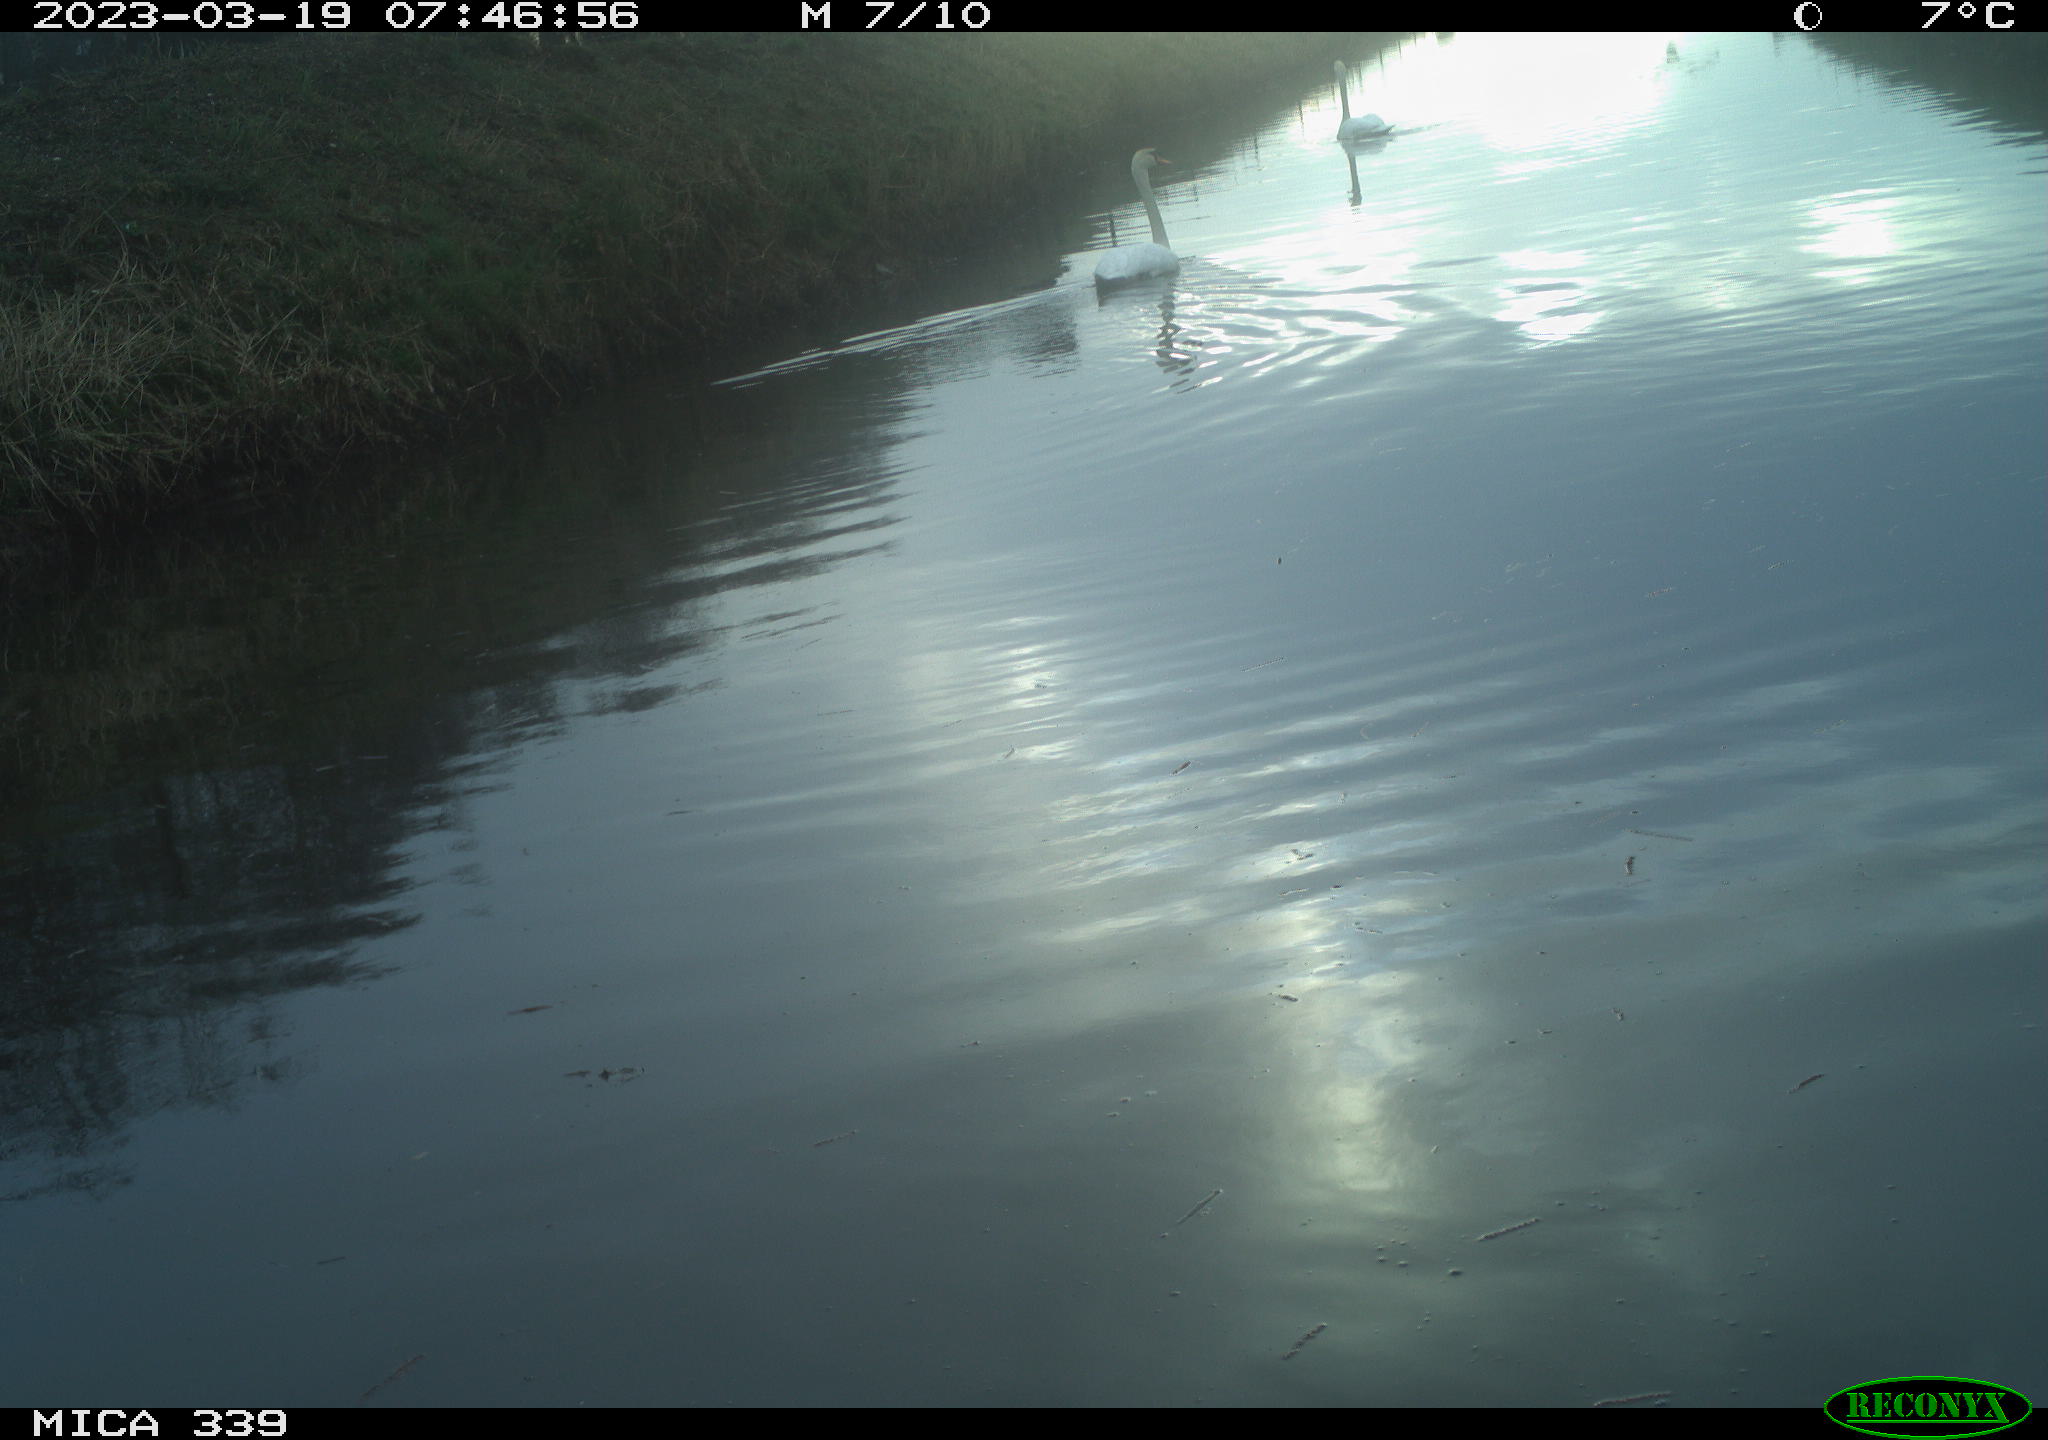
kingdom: Animalia
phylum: Chordata
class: Aves
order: Pelecaniformes
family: Ardeidae
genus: Ardea
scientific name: Ardea
